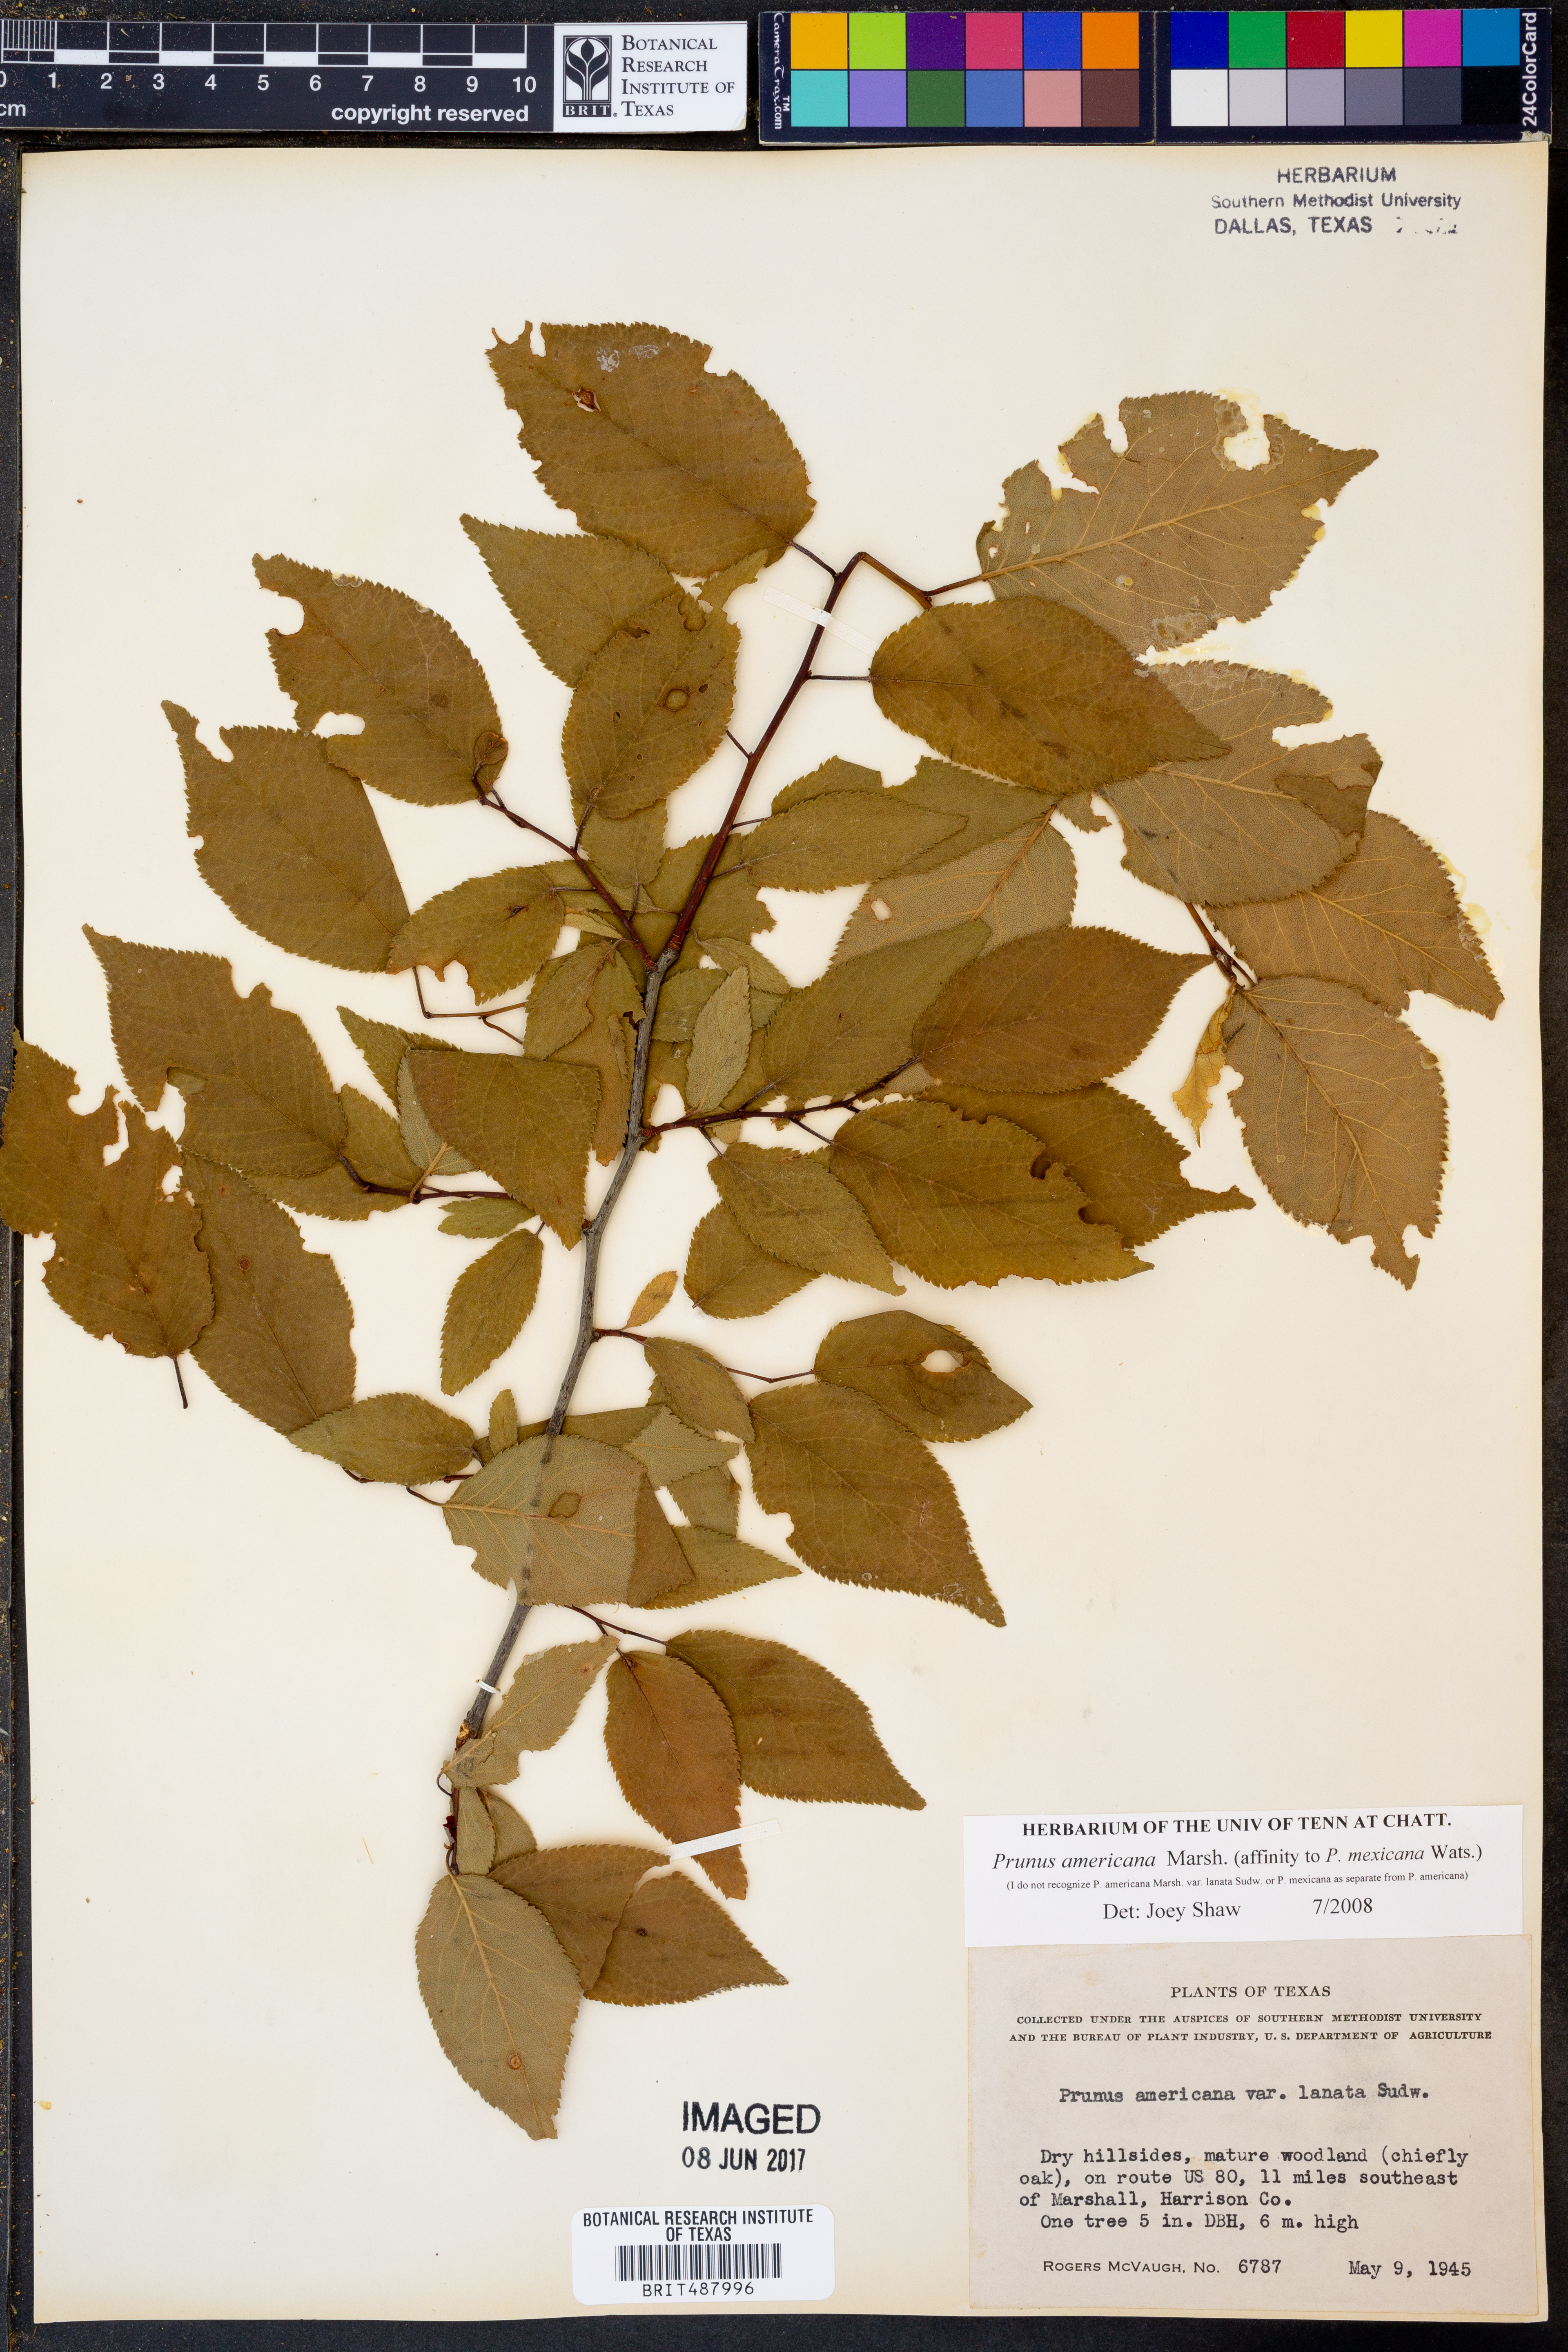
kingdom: Plantae
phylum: Tracheophyta
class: Magnoliopsida
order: Rosales
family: Rosaceae
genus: Prunus
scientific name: Prunus americana
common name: American plum
